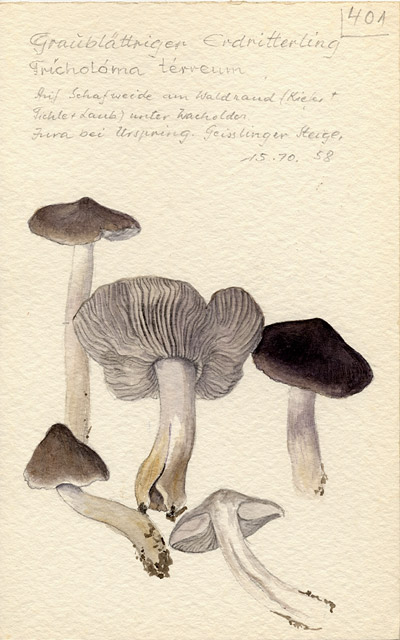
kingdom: Fungi
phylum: Basidiomycota
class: Agaricomycetes
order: Agaricales
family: Tricholomataceae
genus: Tricholoma
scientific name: Tricholoma terreum
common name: Grey knight
